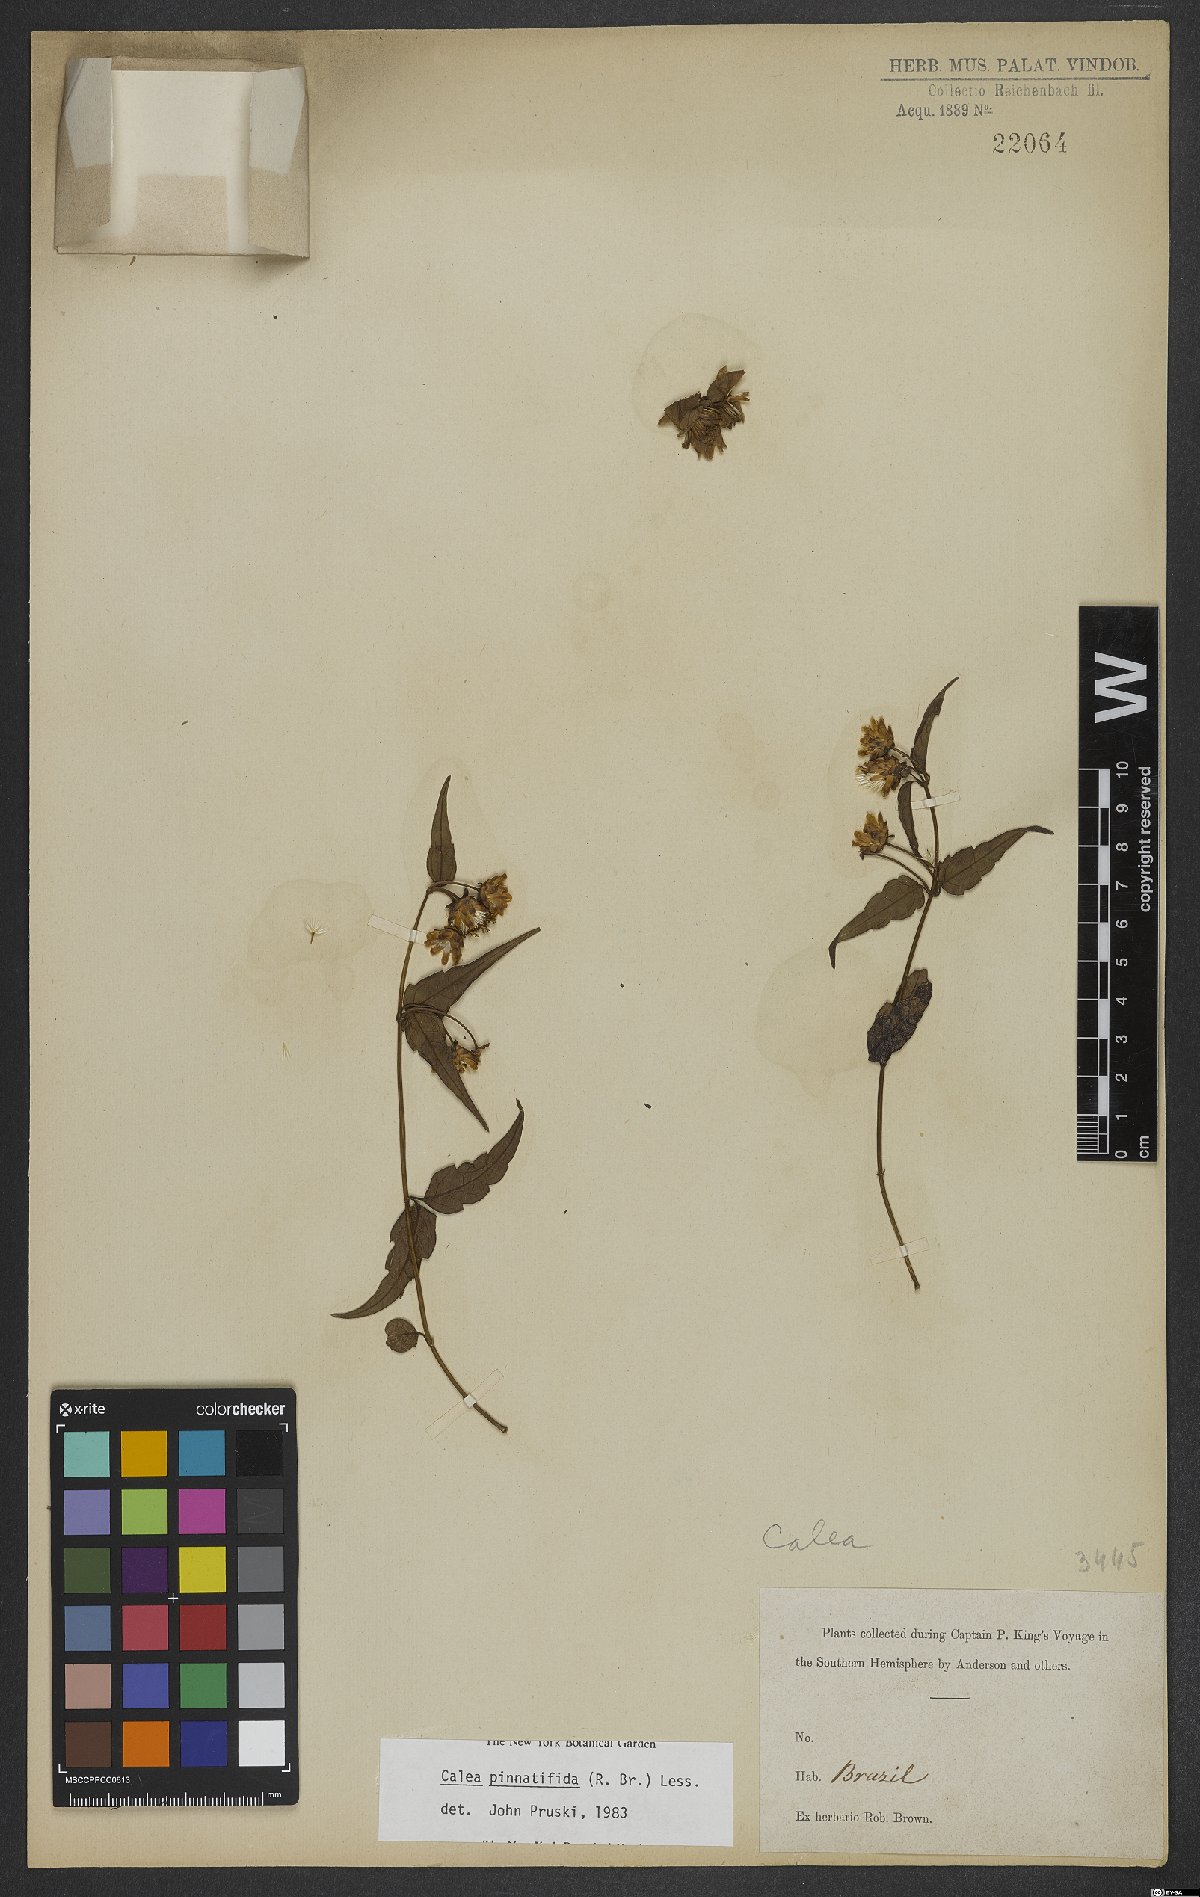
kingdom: Plantae
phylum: Tracheophyta
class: Magnoliopsida
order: Asterales
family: Asteraceae
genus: Calea
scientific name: Calea pinnatifida
